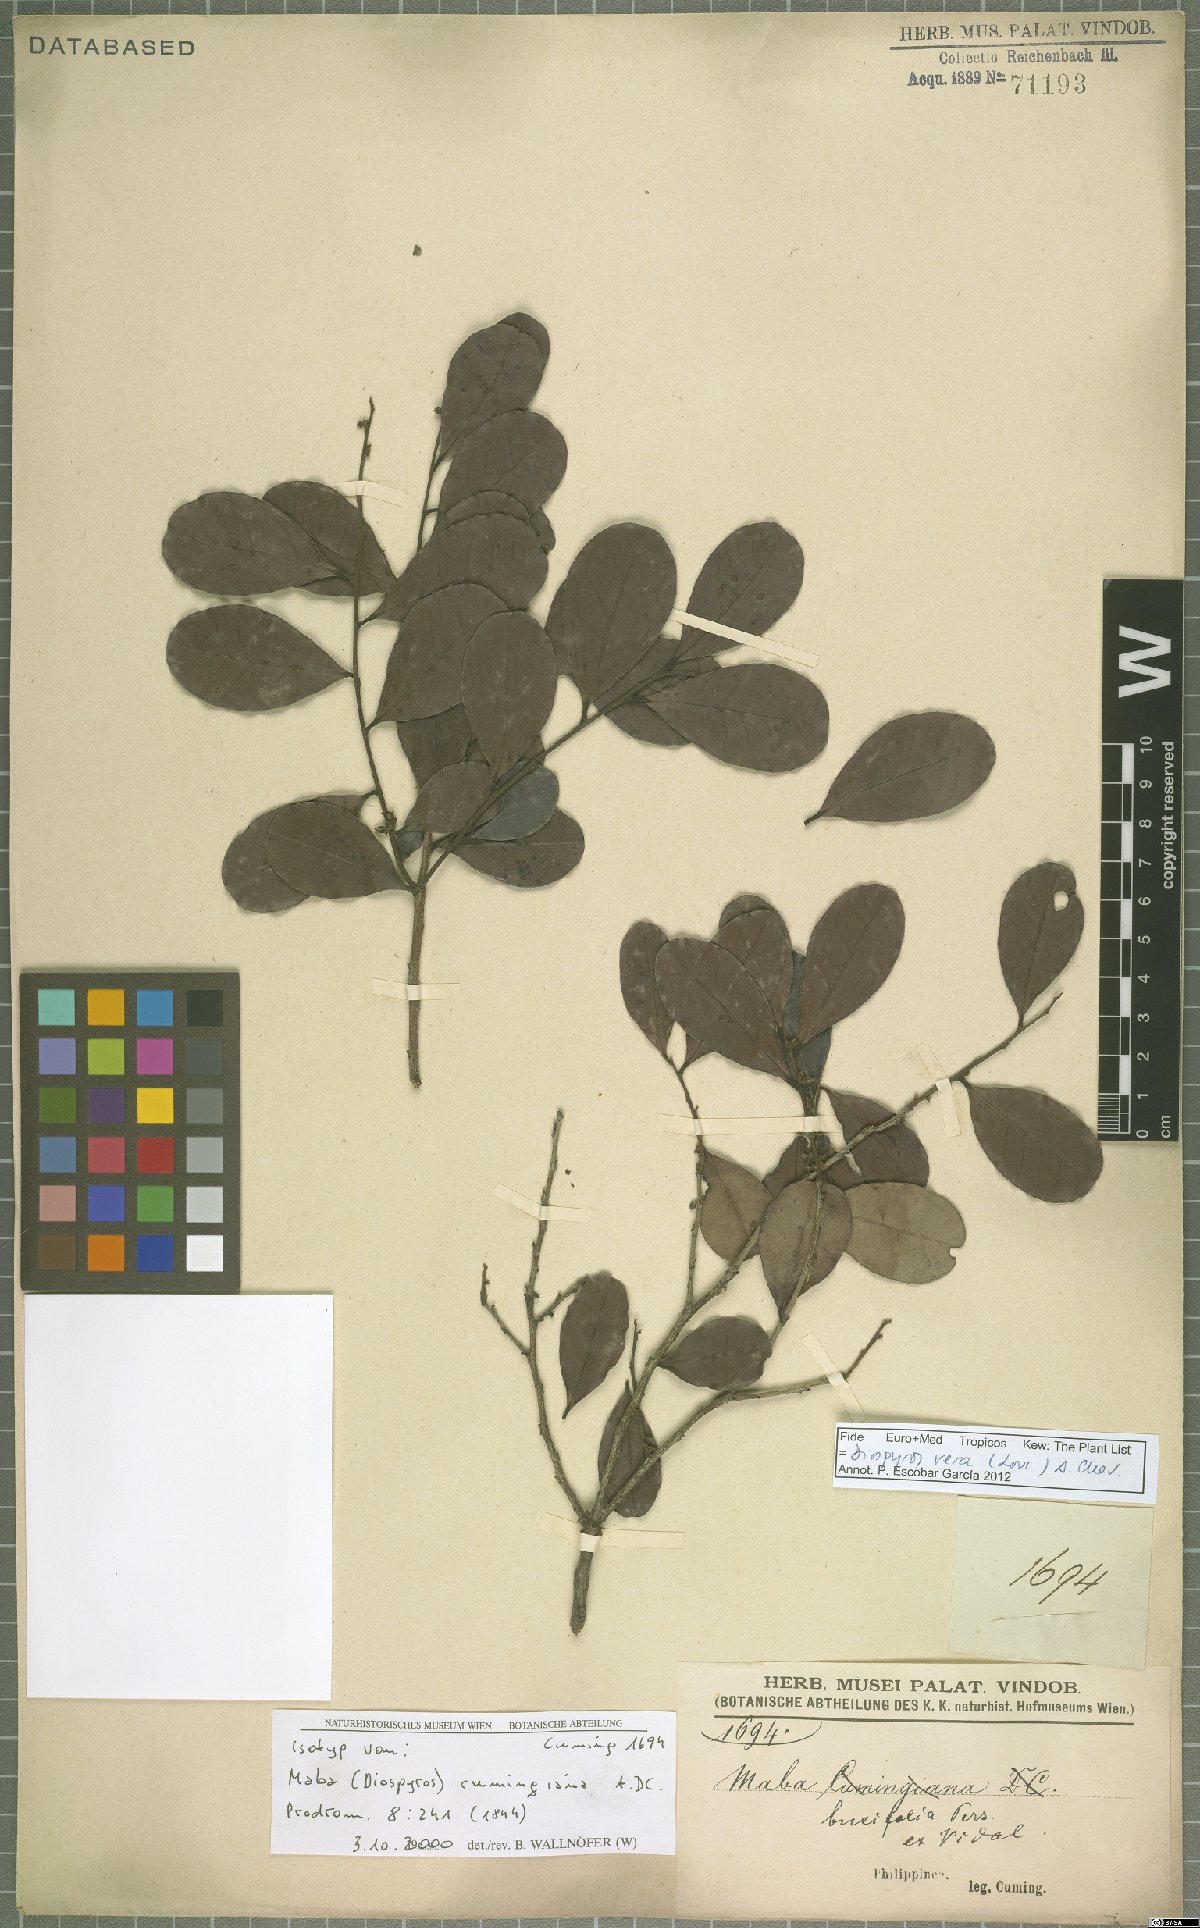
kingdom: Plantae
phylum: Tracheophyta
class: Magnoliopsida
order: Ericales
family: Ebenaceae
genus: Diospyros
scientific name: Diospyros ferrea
